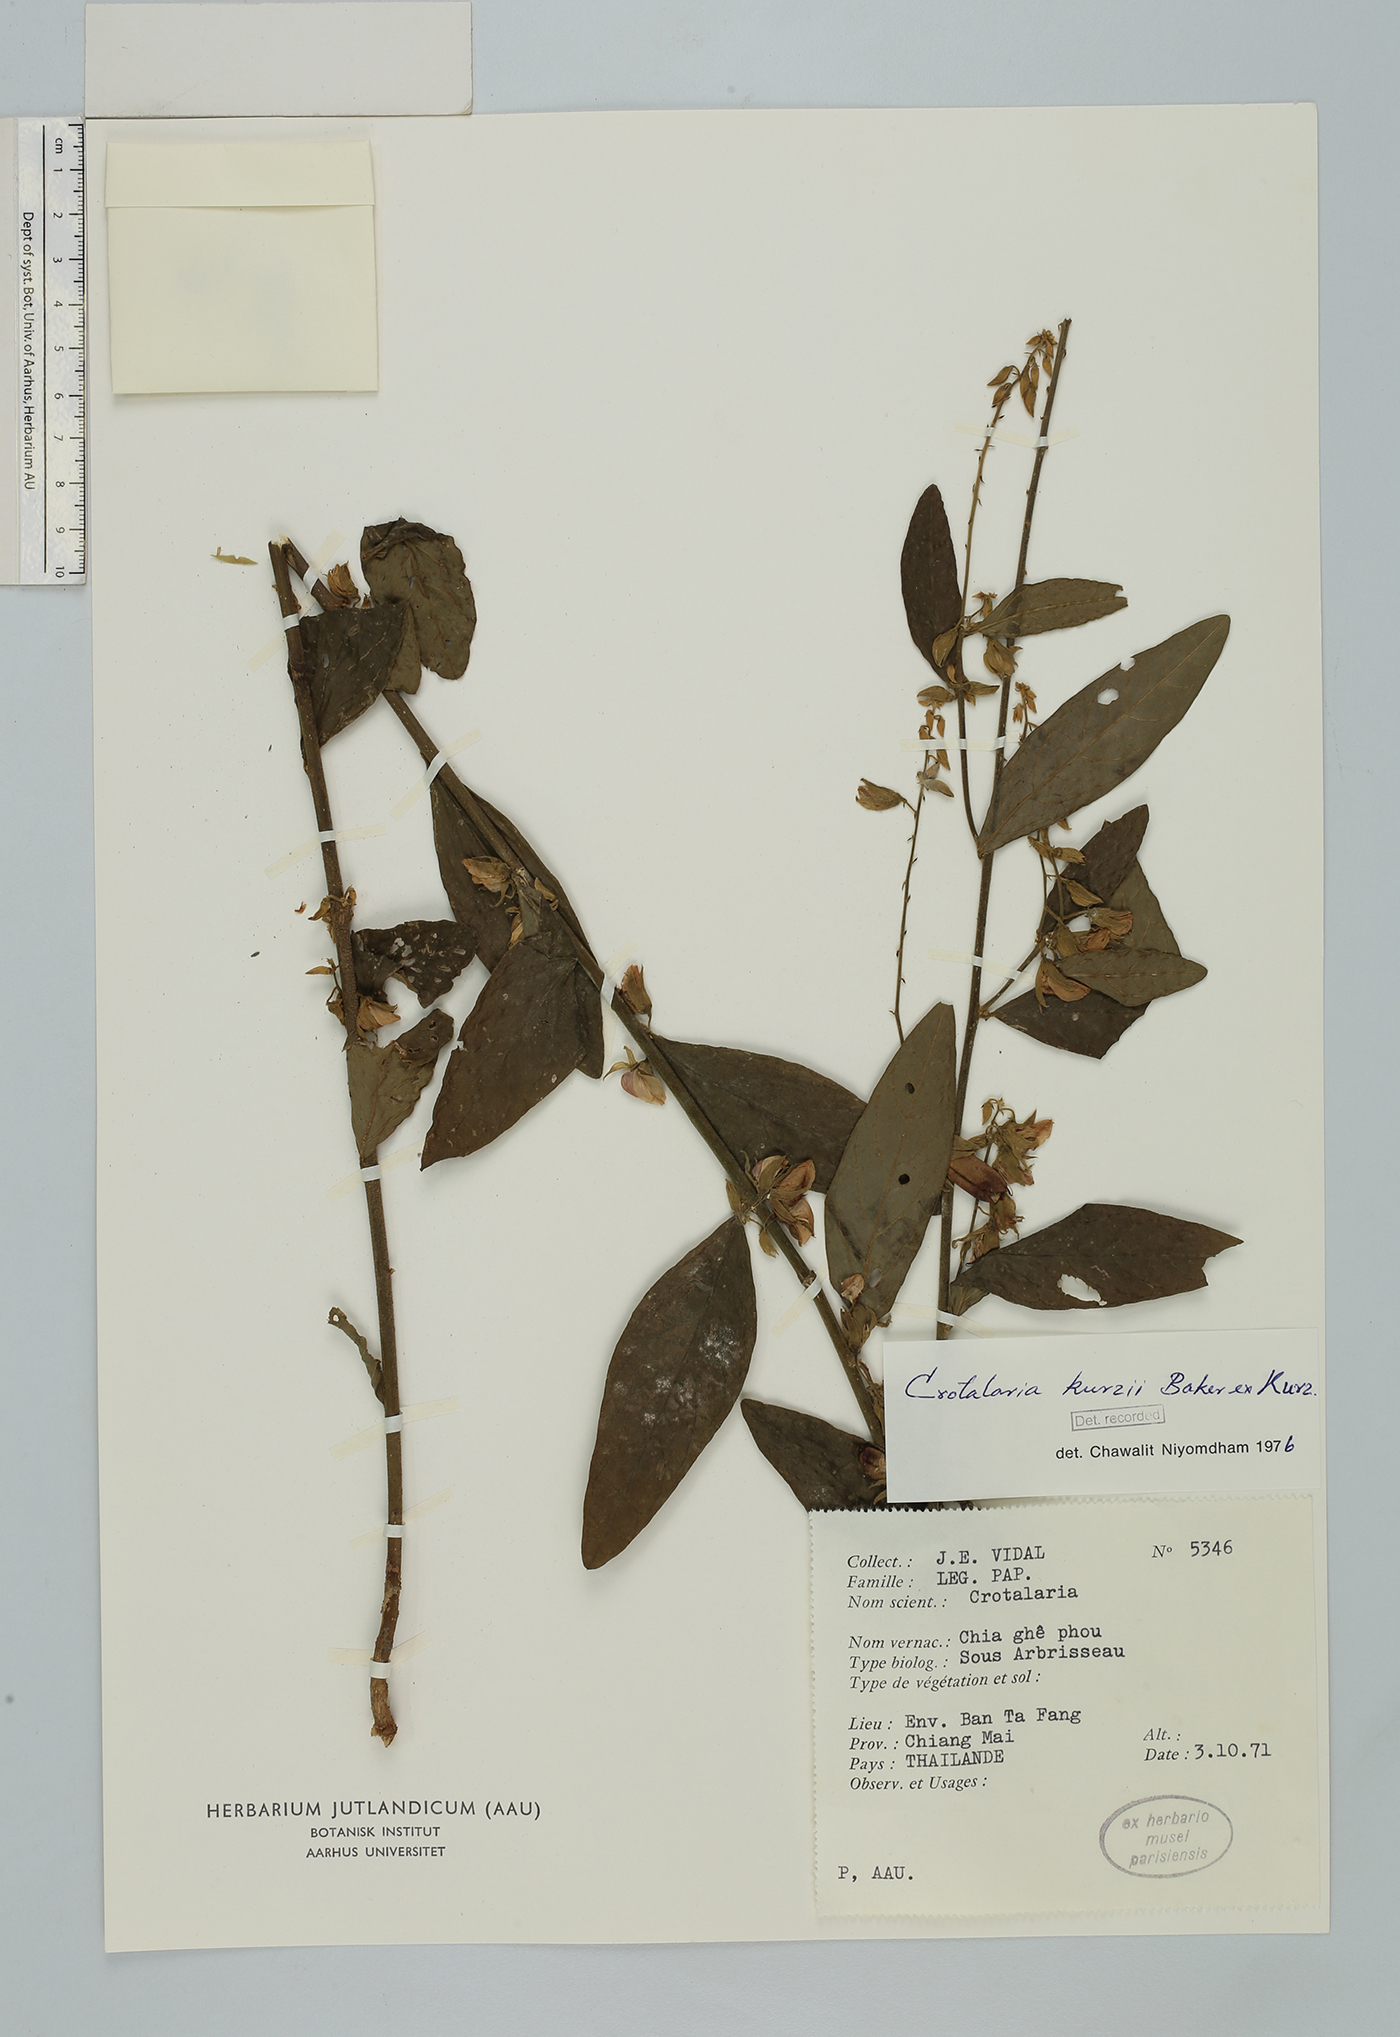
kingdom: Plantae
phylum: Tracheophyta
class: Magnoliopsida
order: Fabales
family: Fabaceae
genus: Crotalaria
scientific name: Crotalaria kurzii
